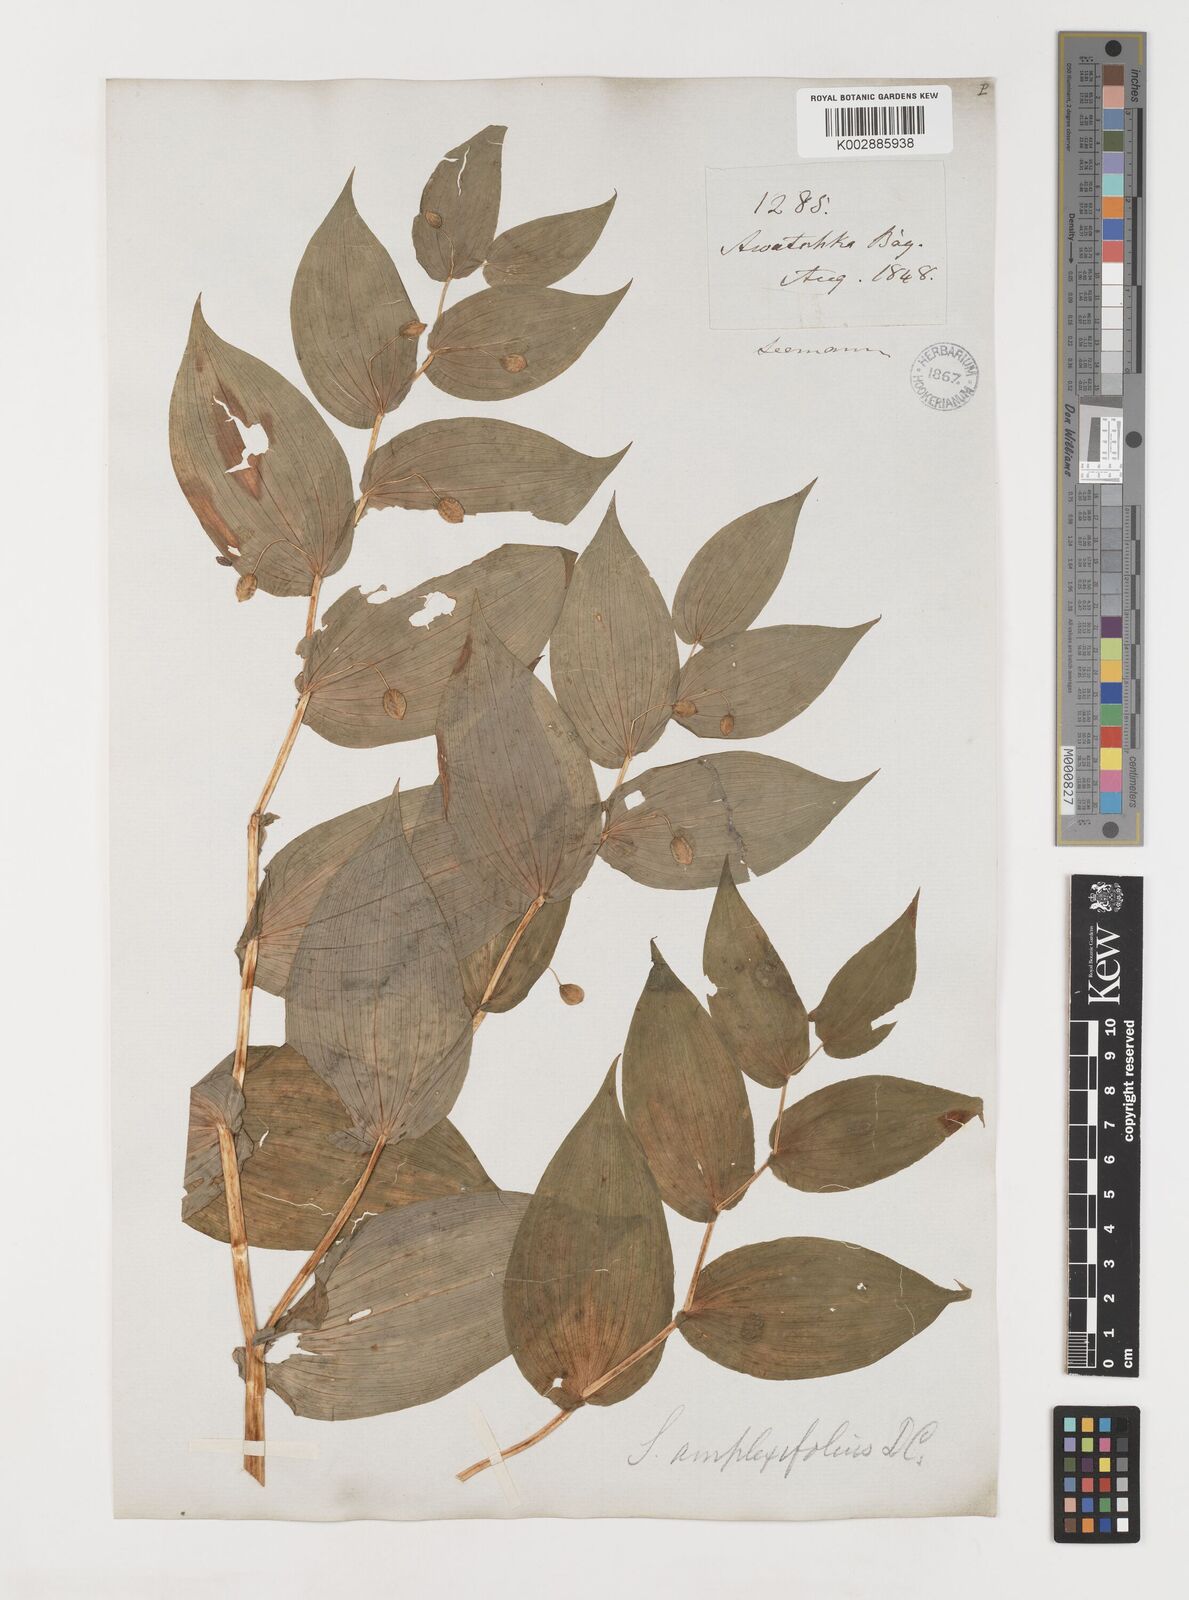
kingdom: Plantae
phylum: Tracheophyta
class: Liliopsida
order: Liliales
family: Liliaceae
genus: Streptopus
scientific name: Streptopus amplexifolius
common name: Clasp twisted stalk
